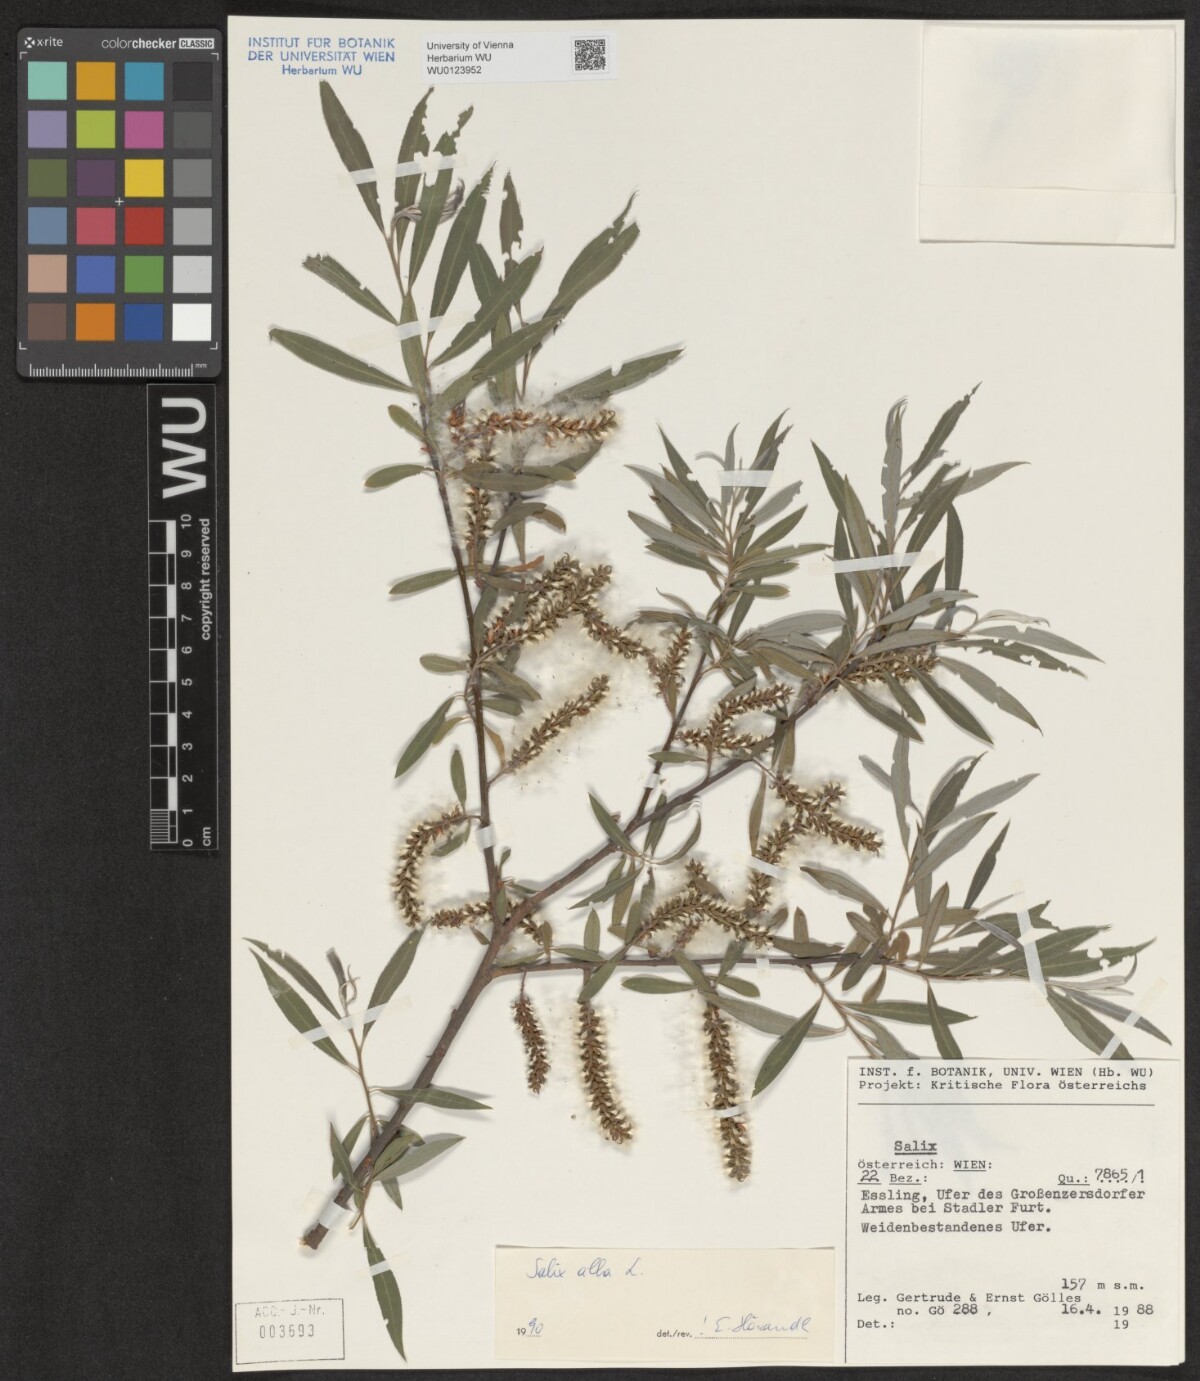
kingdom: Plantae
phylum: Tracheophyta
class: Magnoliopsida
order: Malpighiales
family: Salicaceae
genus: Salix
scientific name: Salix alba
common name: White willow
